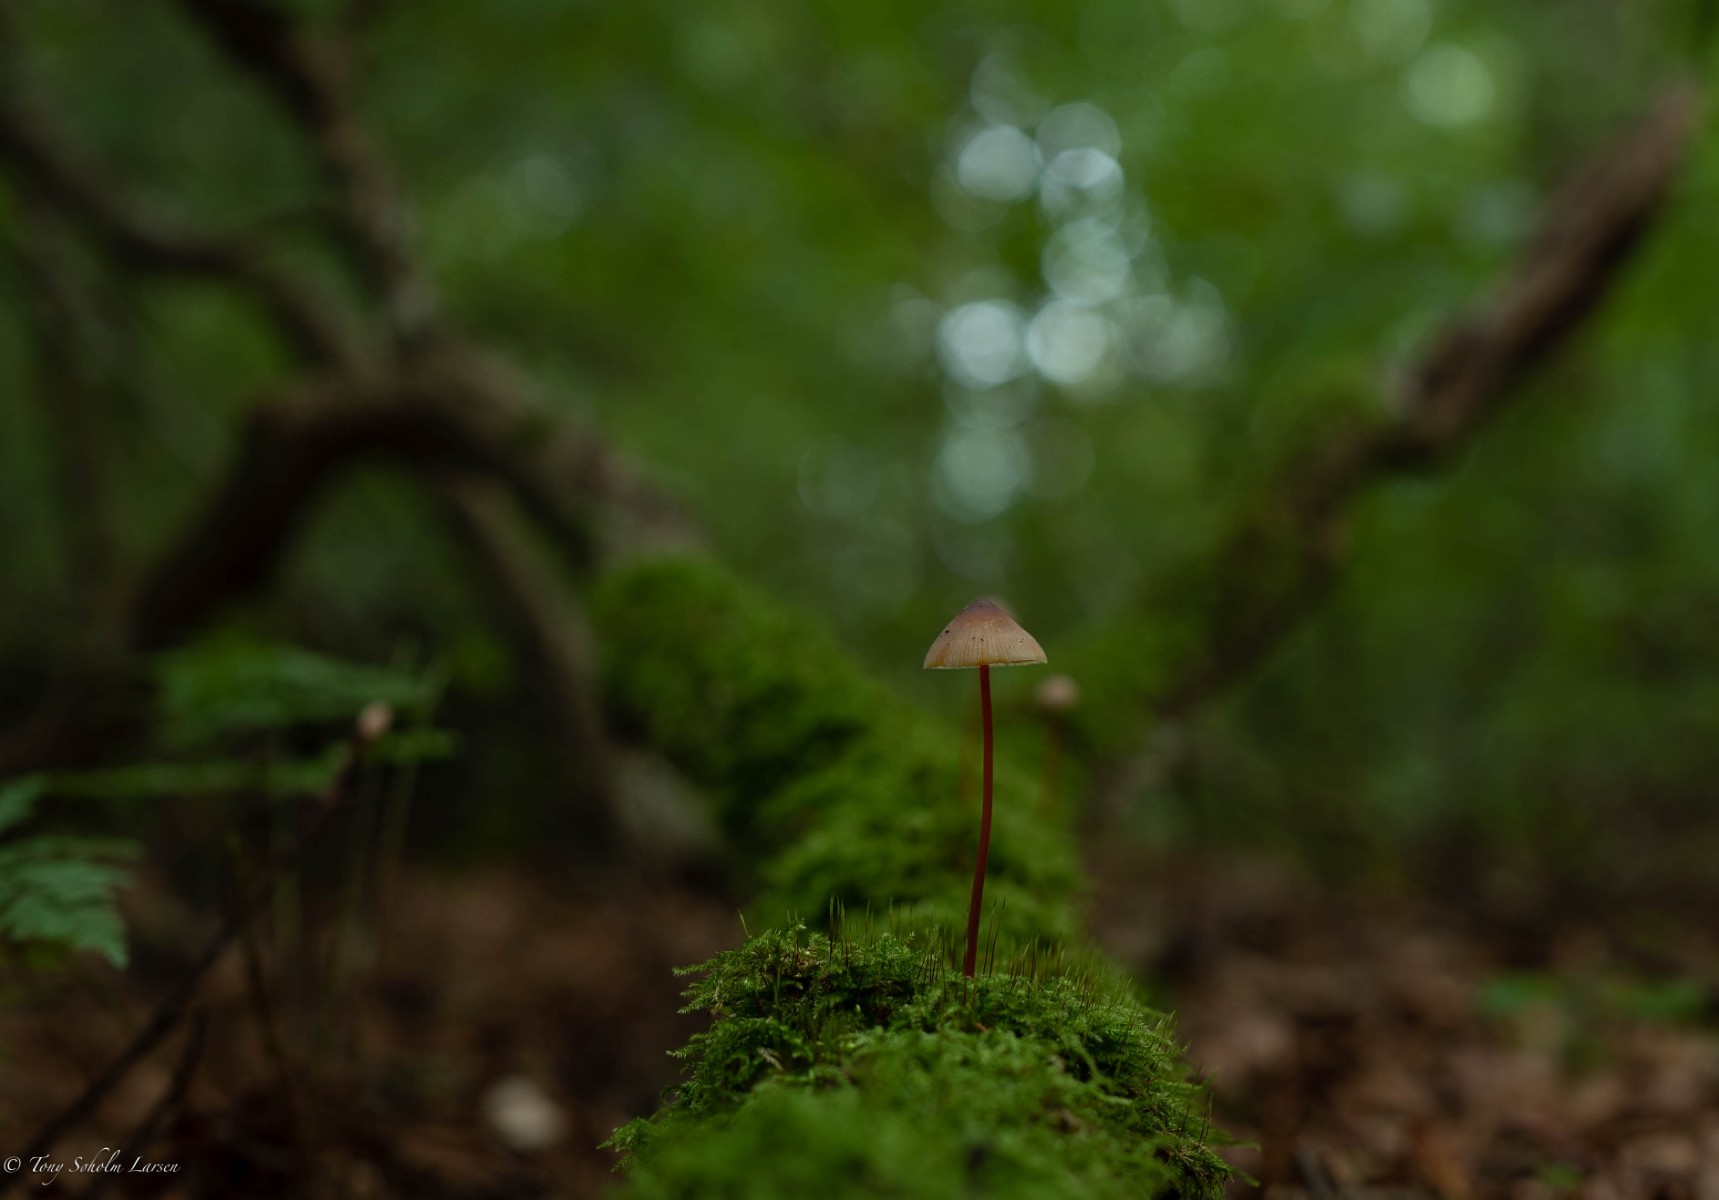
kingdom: Fungi
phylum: Basidiomycota
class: Agaricomycetes
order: Agaricales
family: Mycenaceae
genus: Mycena
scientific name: Mycena crocata
